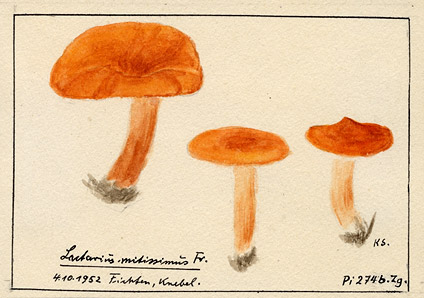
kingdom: Fungi
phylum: Basidiomycota
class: Agaricomycetes
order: Russulales
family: Russulaceae
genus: Lactarius
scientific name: Lactarius aurantiacus
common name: Orange milkcap
